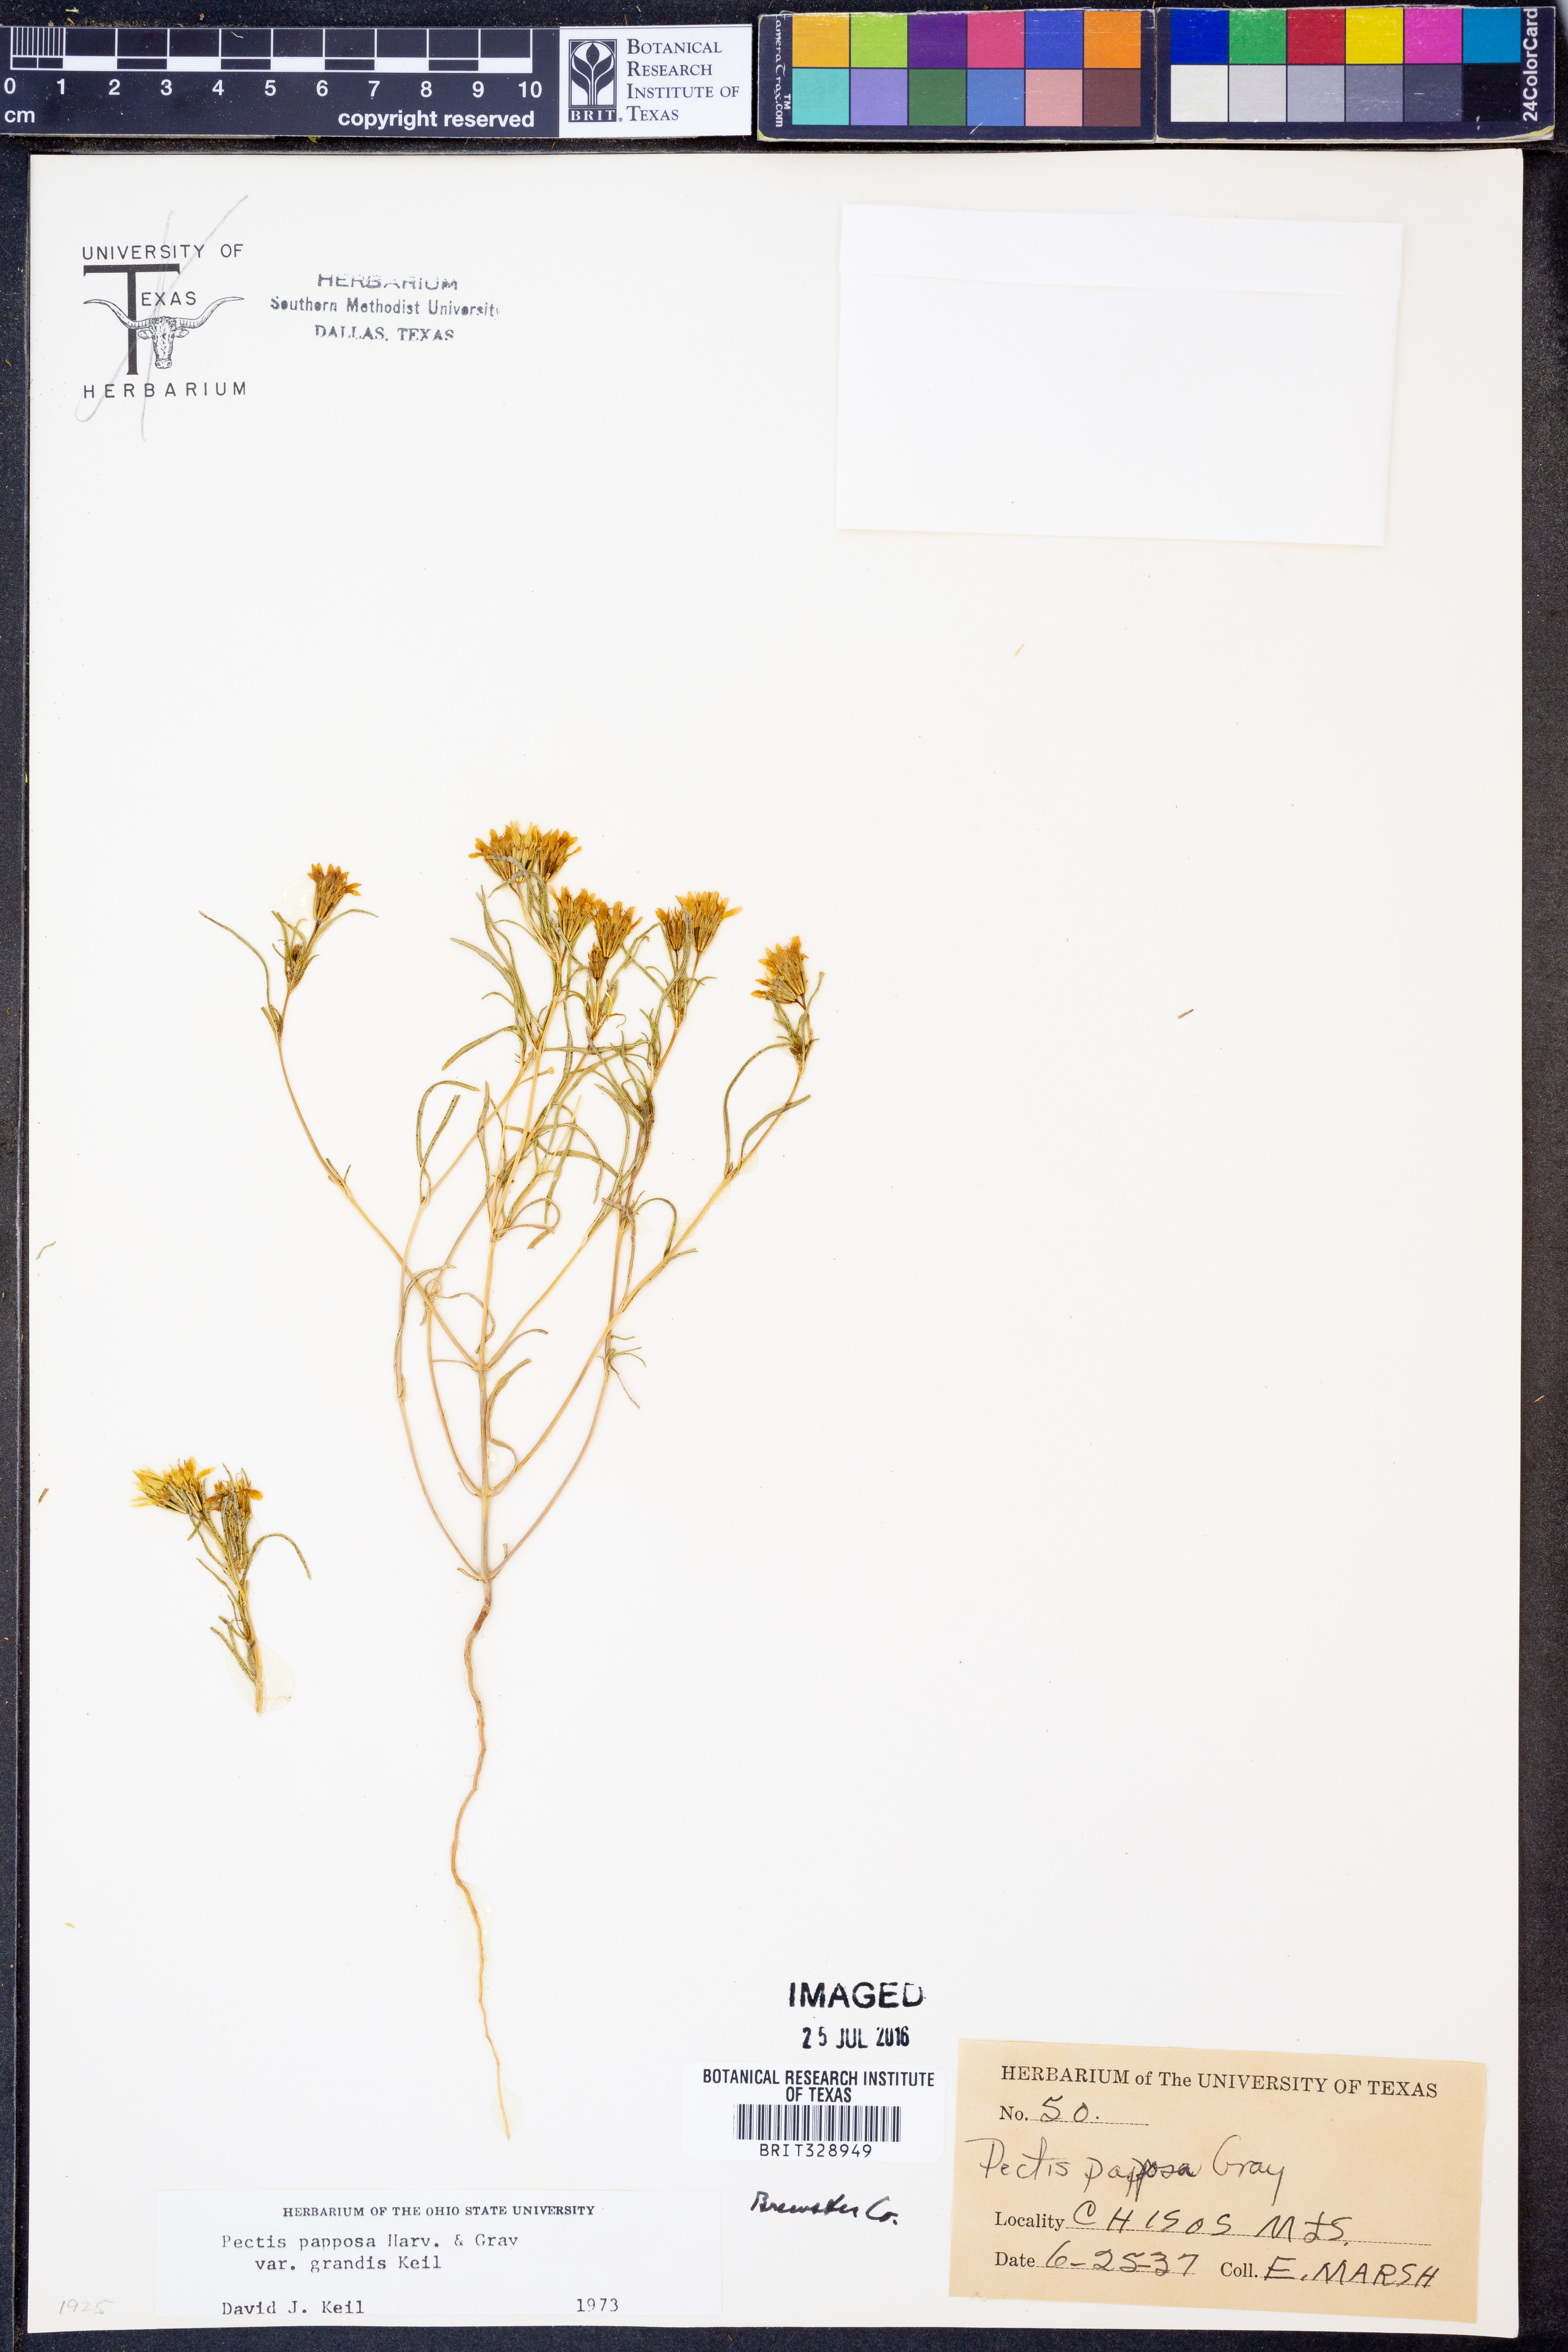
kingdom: Plantae
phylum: Tracheophyta
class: Magnoliopsida
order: Asterales
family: Asteraceae
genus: Pectis
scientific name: Pectis papposa
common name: Many-bristle chinchweed
